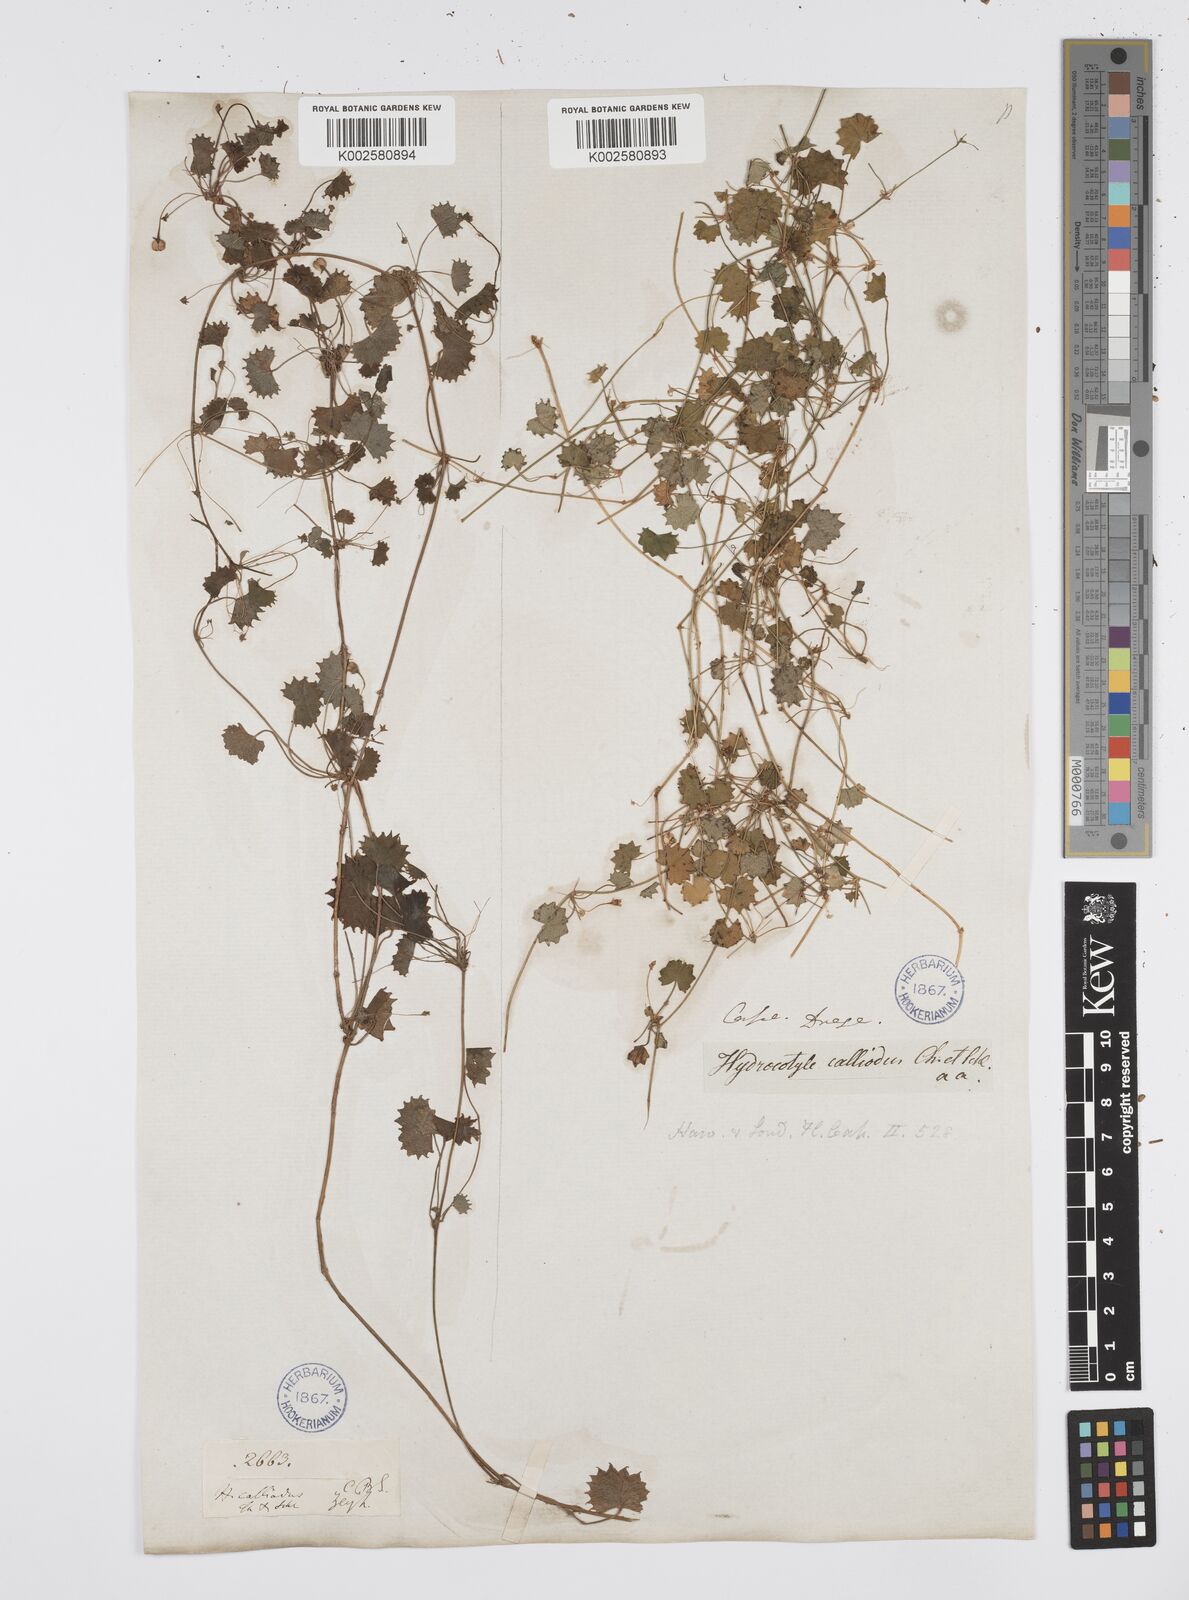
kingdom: Plantae
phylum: Tracheophyta
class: Magnoliopsida
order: Apiales
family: Apiaceae
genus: Centella
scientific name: Centella
